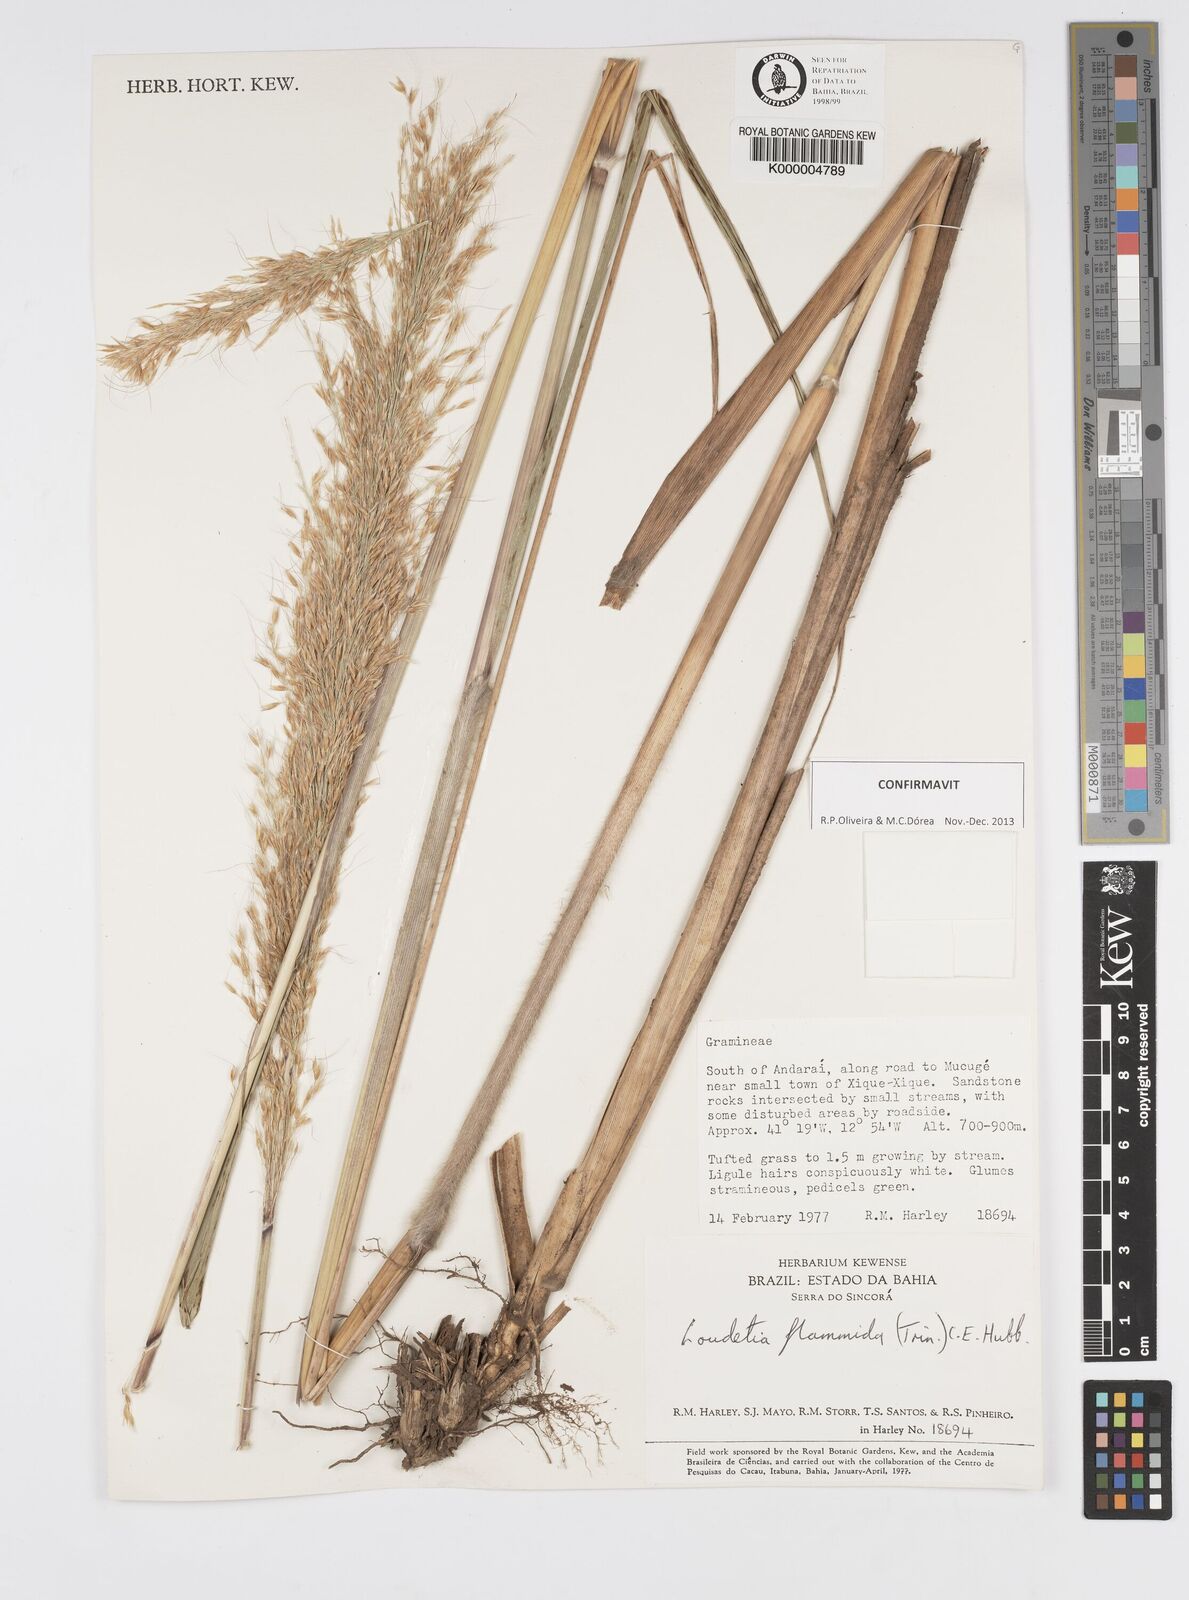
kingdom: Plantae
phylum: Tracheophyta
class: Liliopsida
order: Poales
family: Poaceae
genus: Loudetia
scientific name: Loudetia flammida
